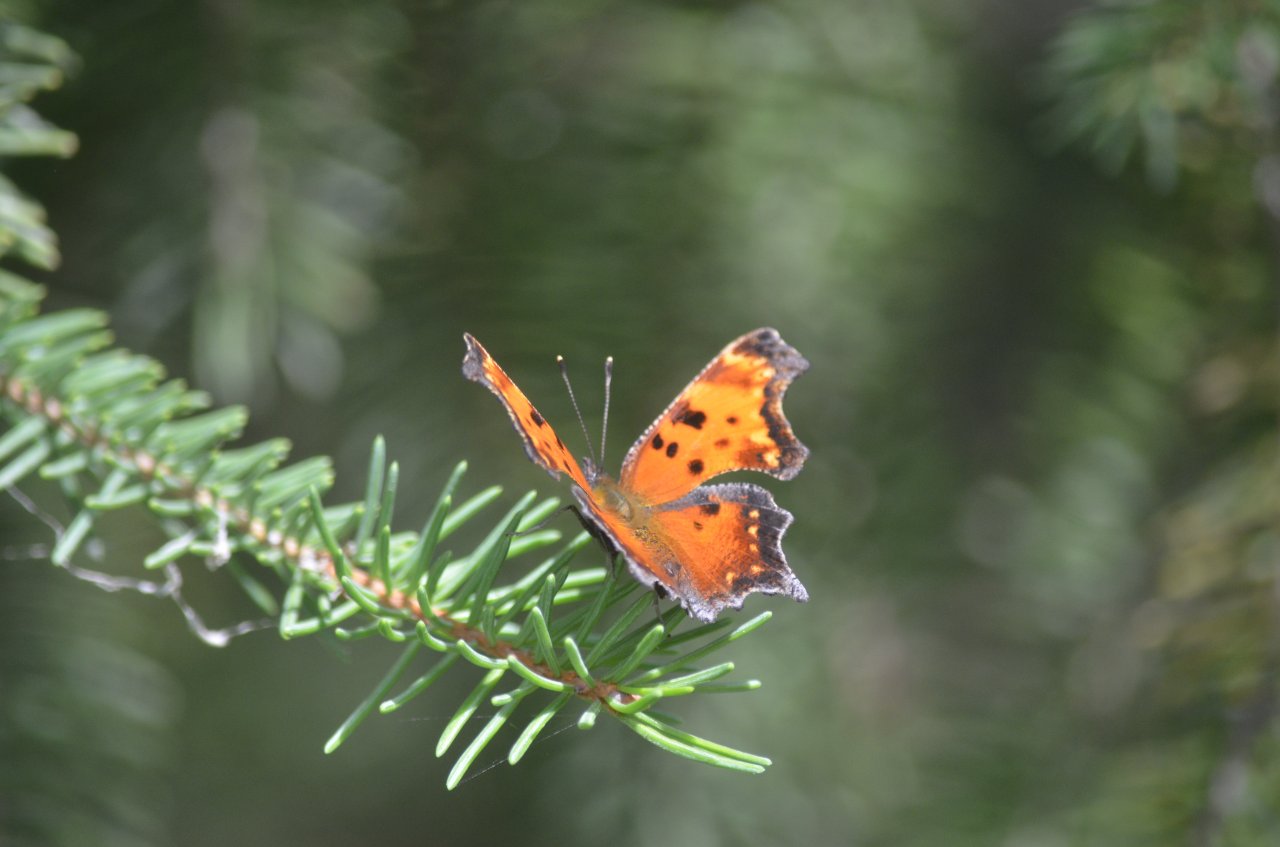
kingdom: Animalia
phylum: Arthropoda
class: Insecta
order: Lepidoptera
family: Nymphalidae
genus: Polygonia
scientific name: Polygonia progne
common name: Gray Comma
